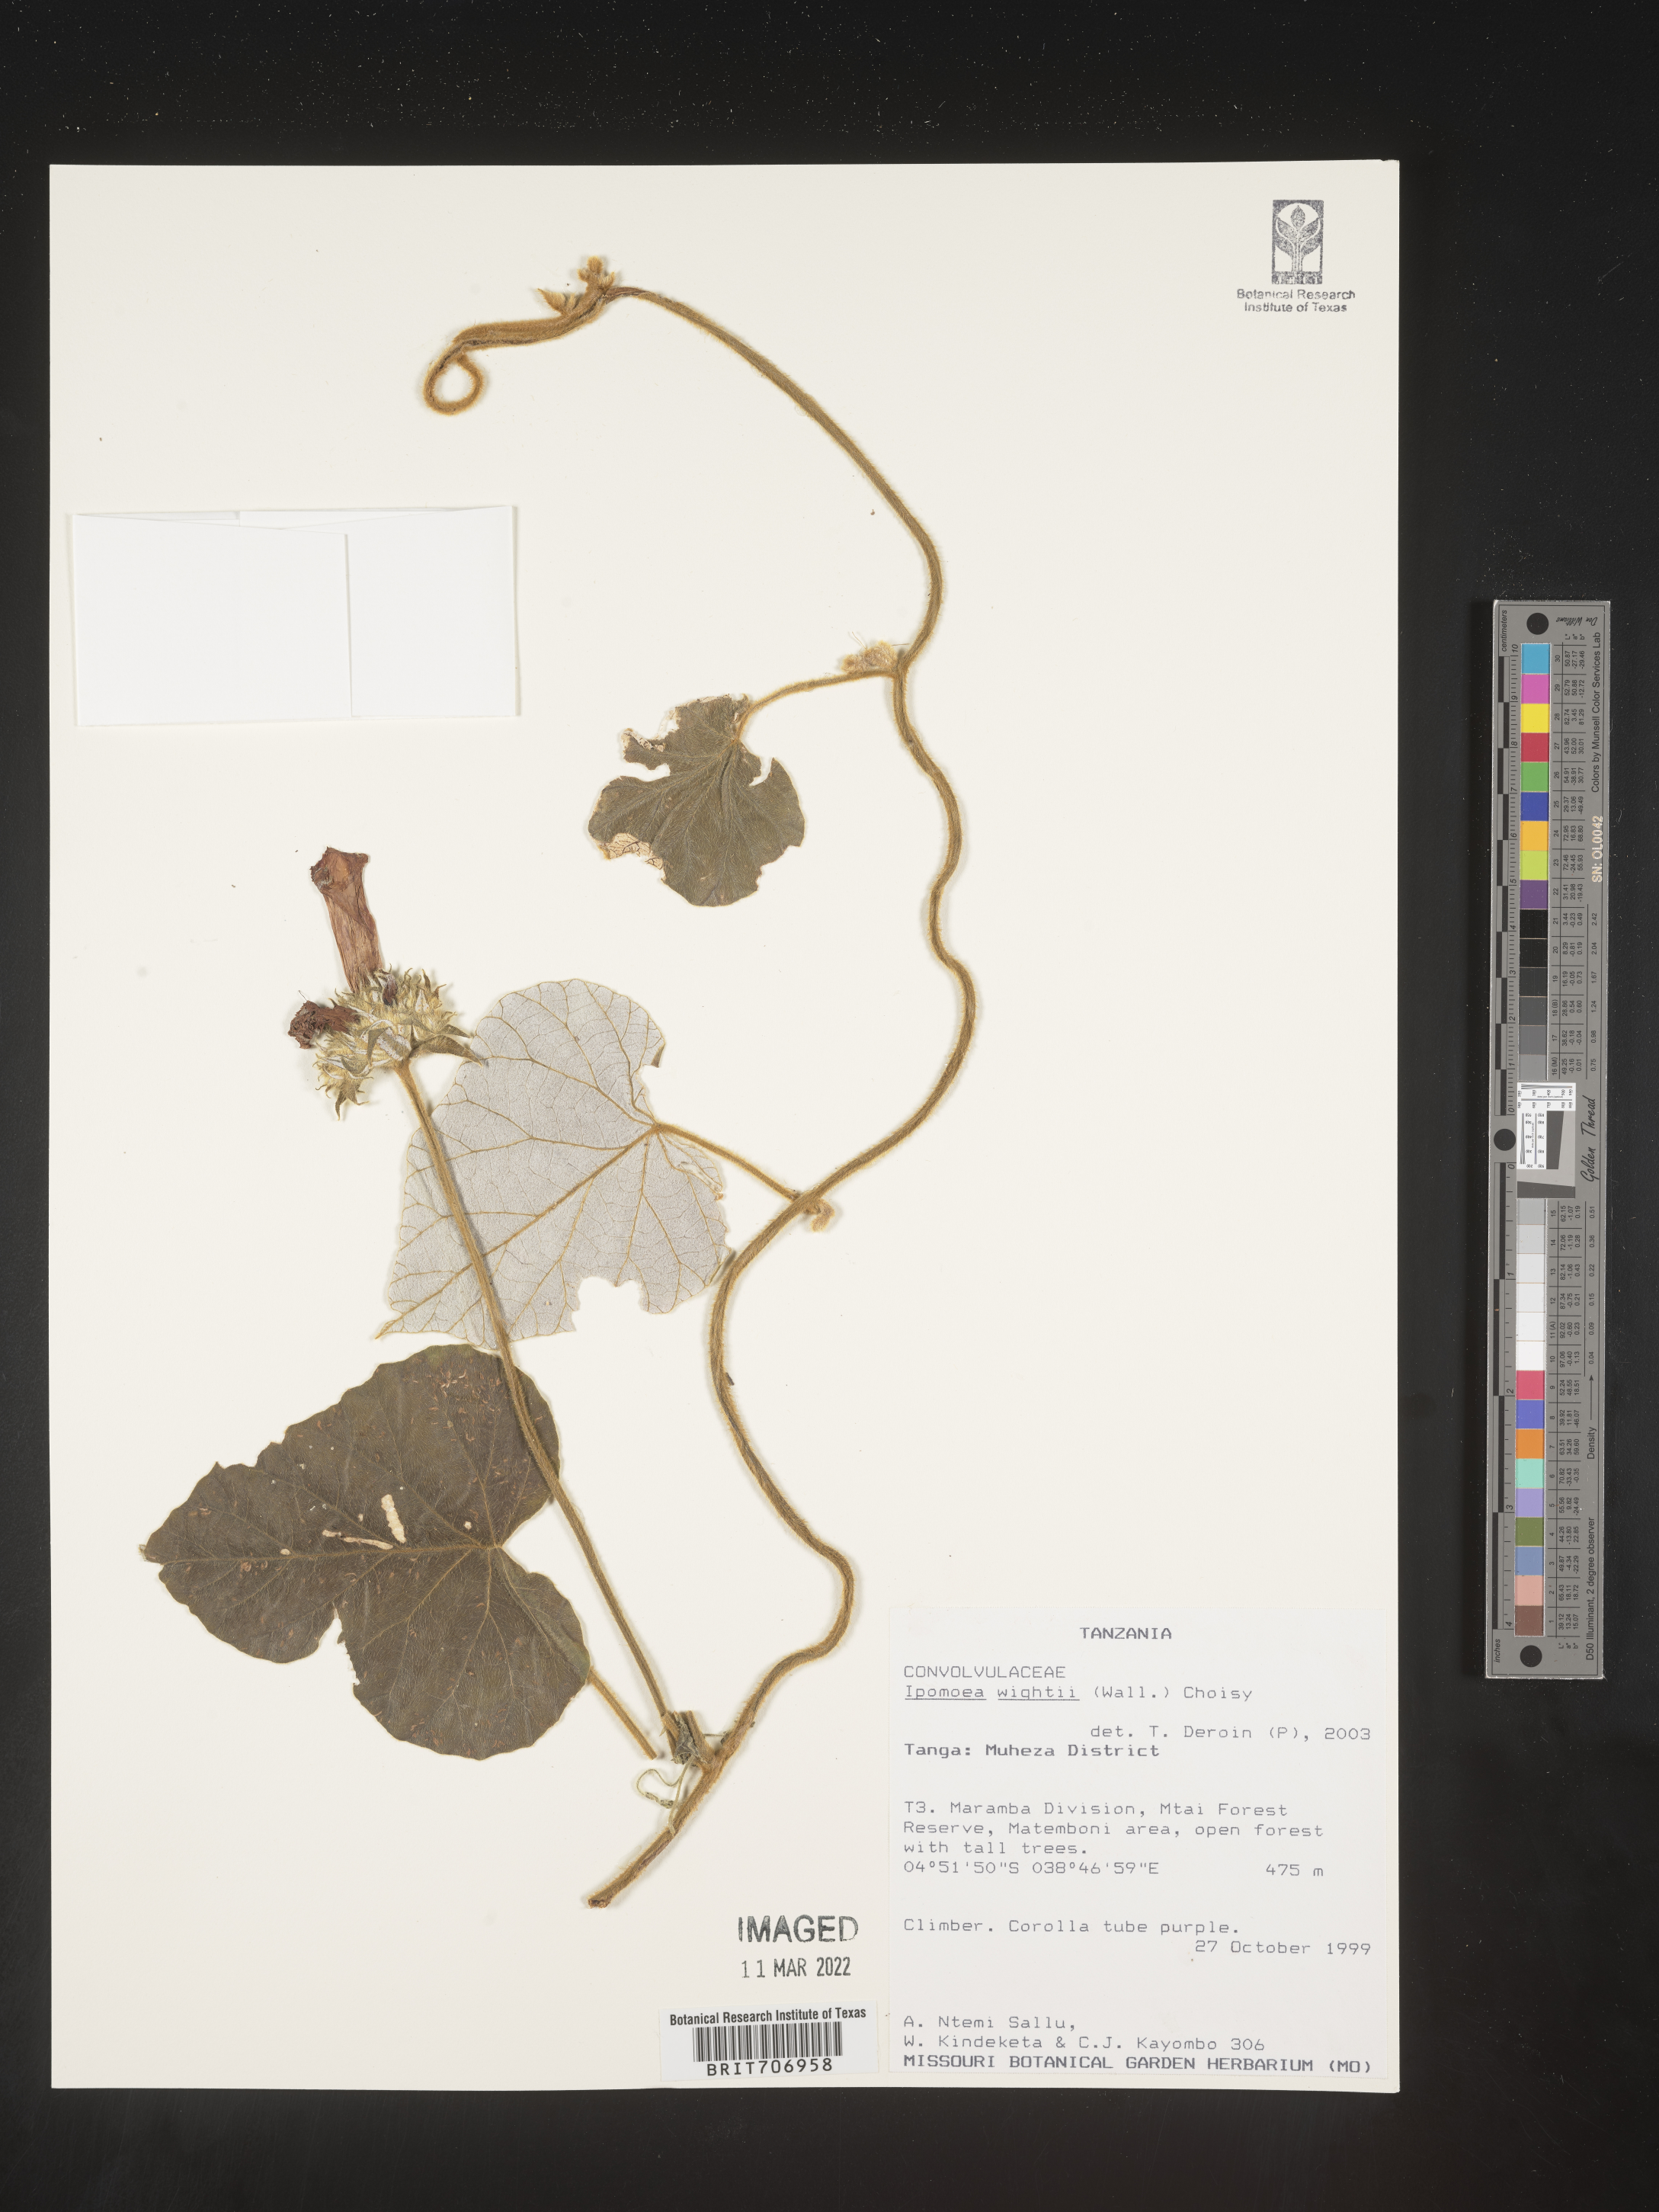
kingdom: Plantae
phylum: Tracheophyta
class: Magnoliopsida
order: Solanales
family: Convolvulaceae
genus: Ipomoea
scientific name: Ipomoea
